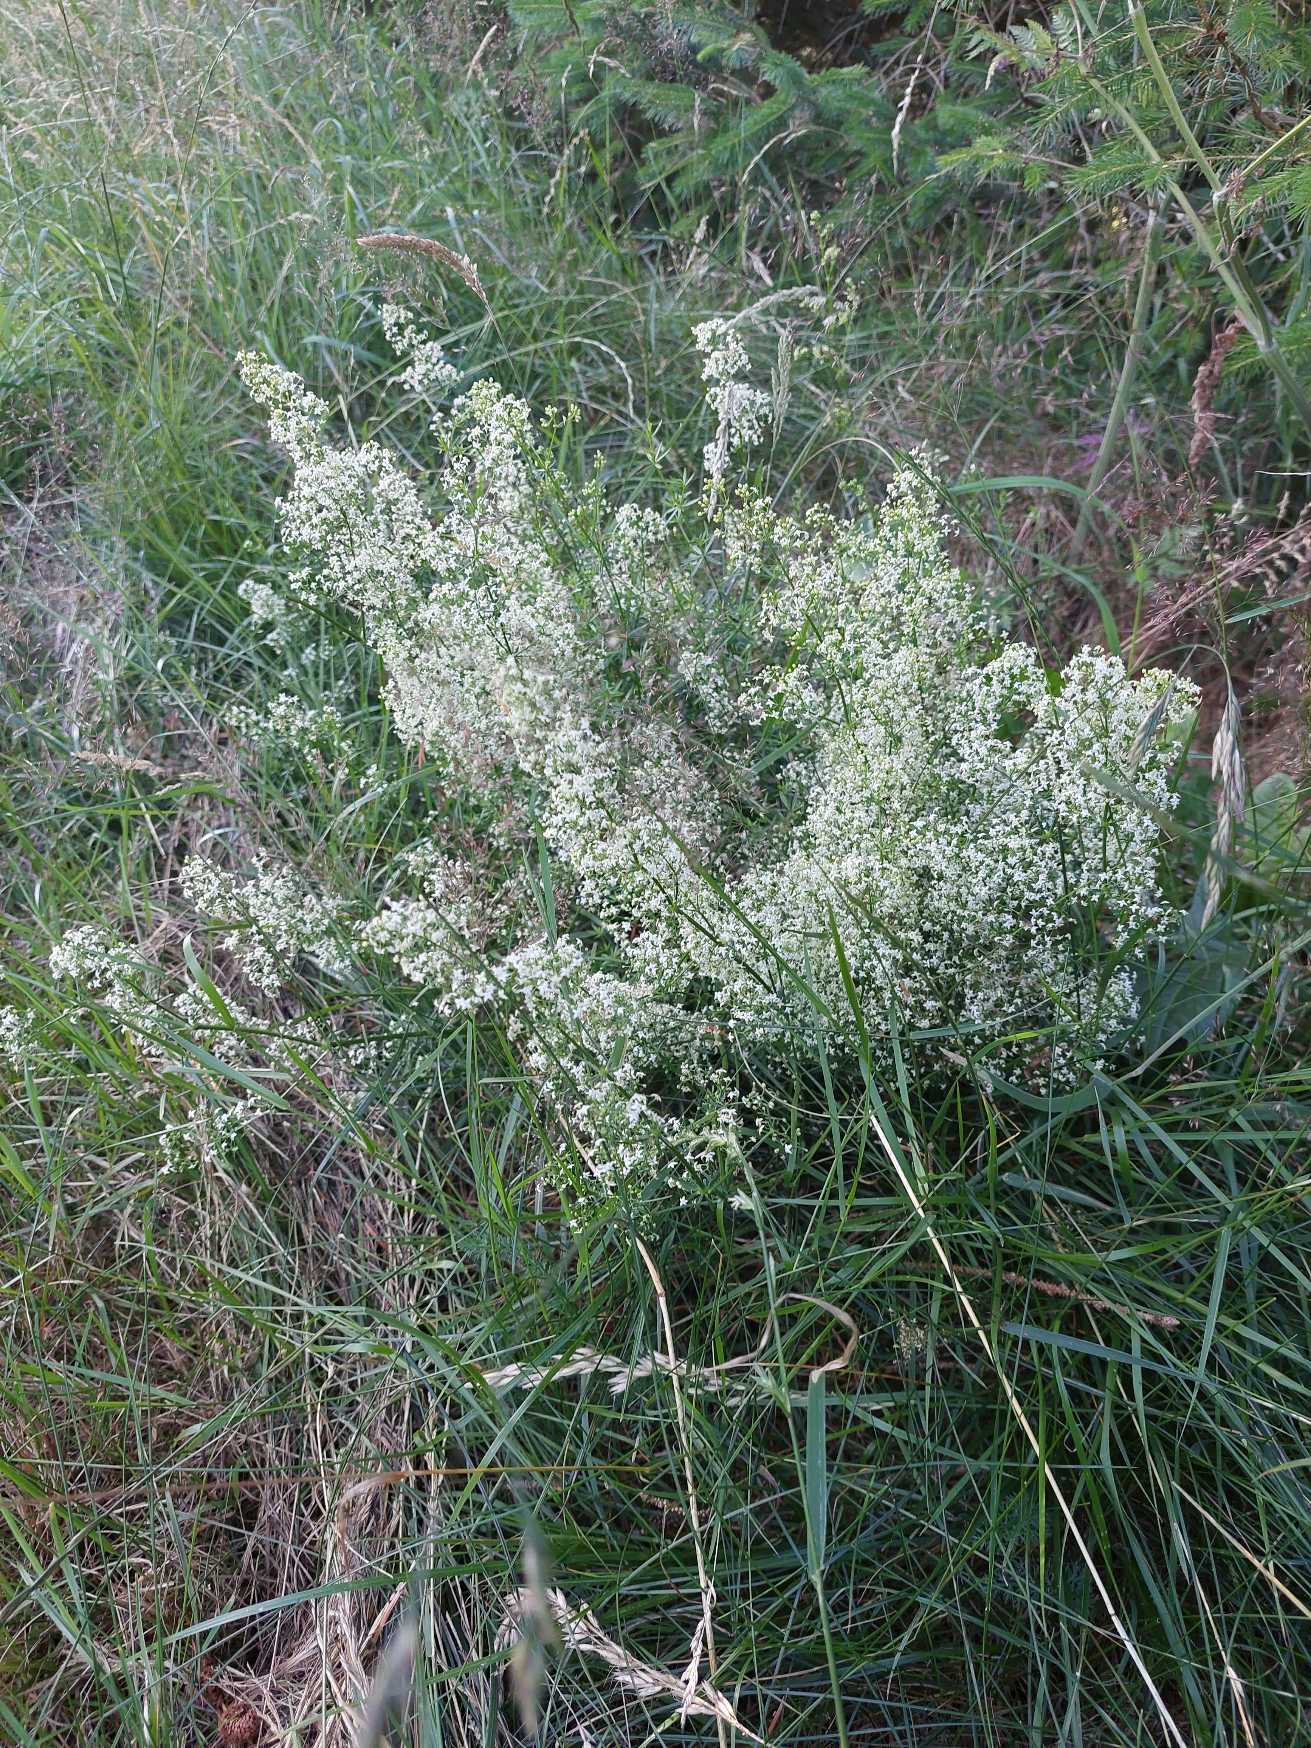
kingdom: Plantae
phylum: Tracheophyta
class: Magnoliopsida
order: Gentianales
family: Rubiaceae
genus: Galium
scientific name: Galium mollugo
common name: Almindelig snerre
